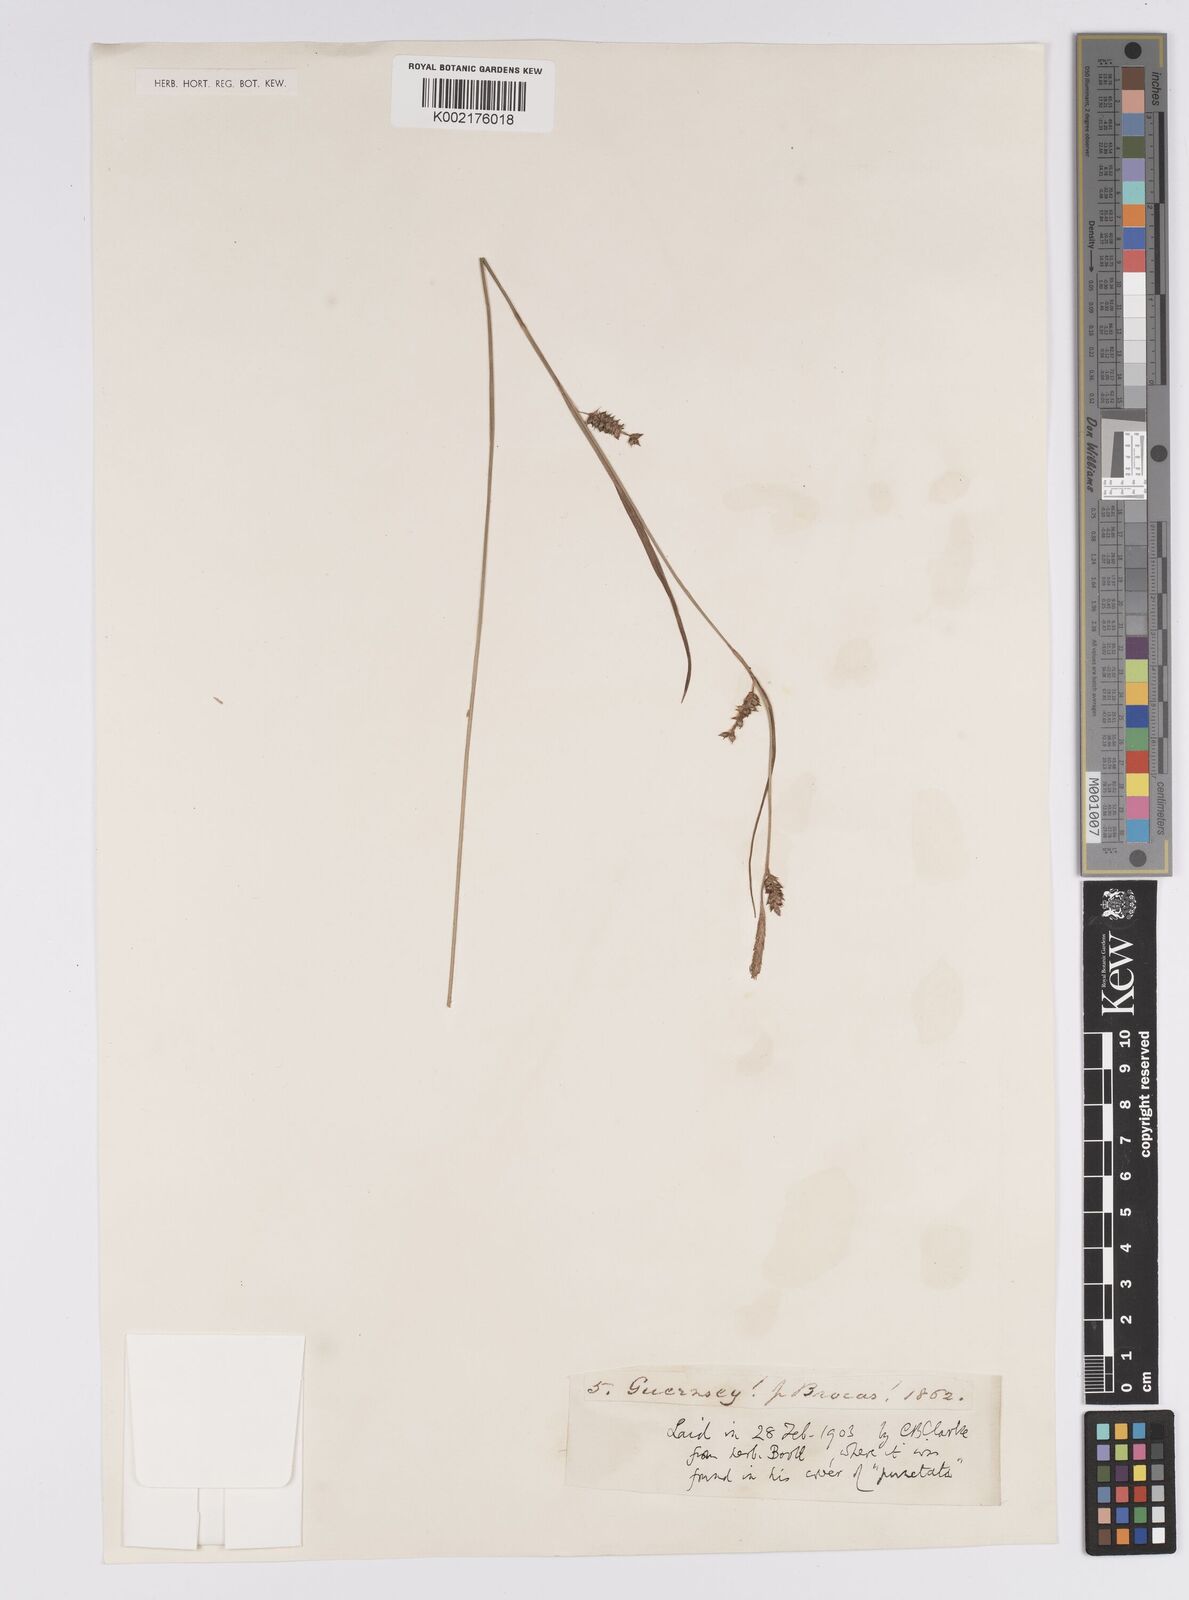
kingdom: Plantae
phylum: Tracheophyta
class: Liliopsida
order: Poales
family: Cyperaceae
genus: Carex
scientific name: Carex punctata
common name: Dotted sedge
